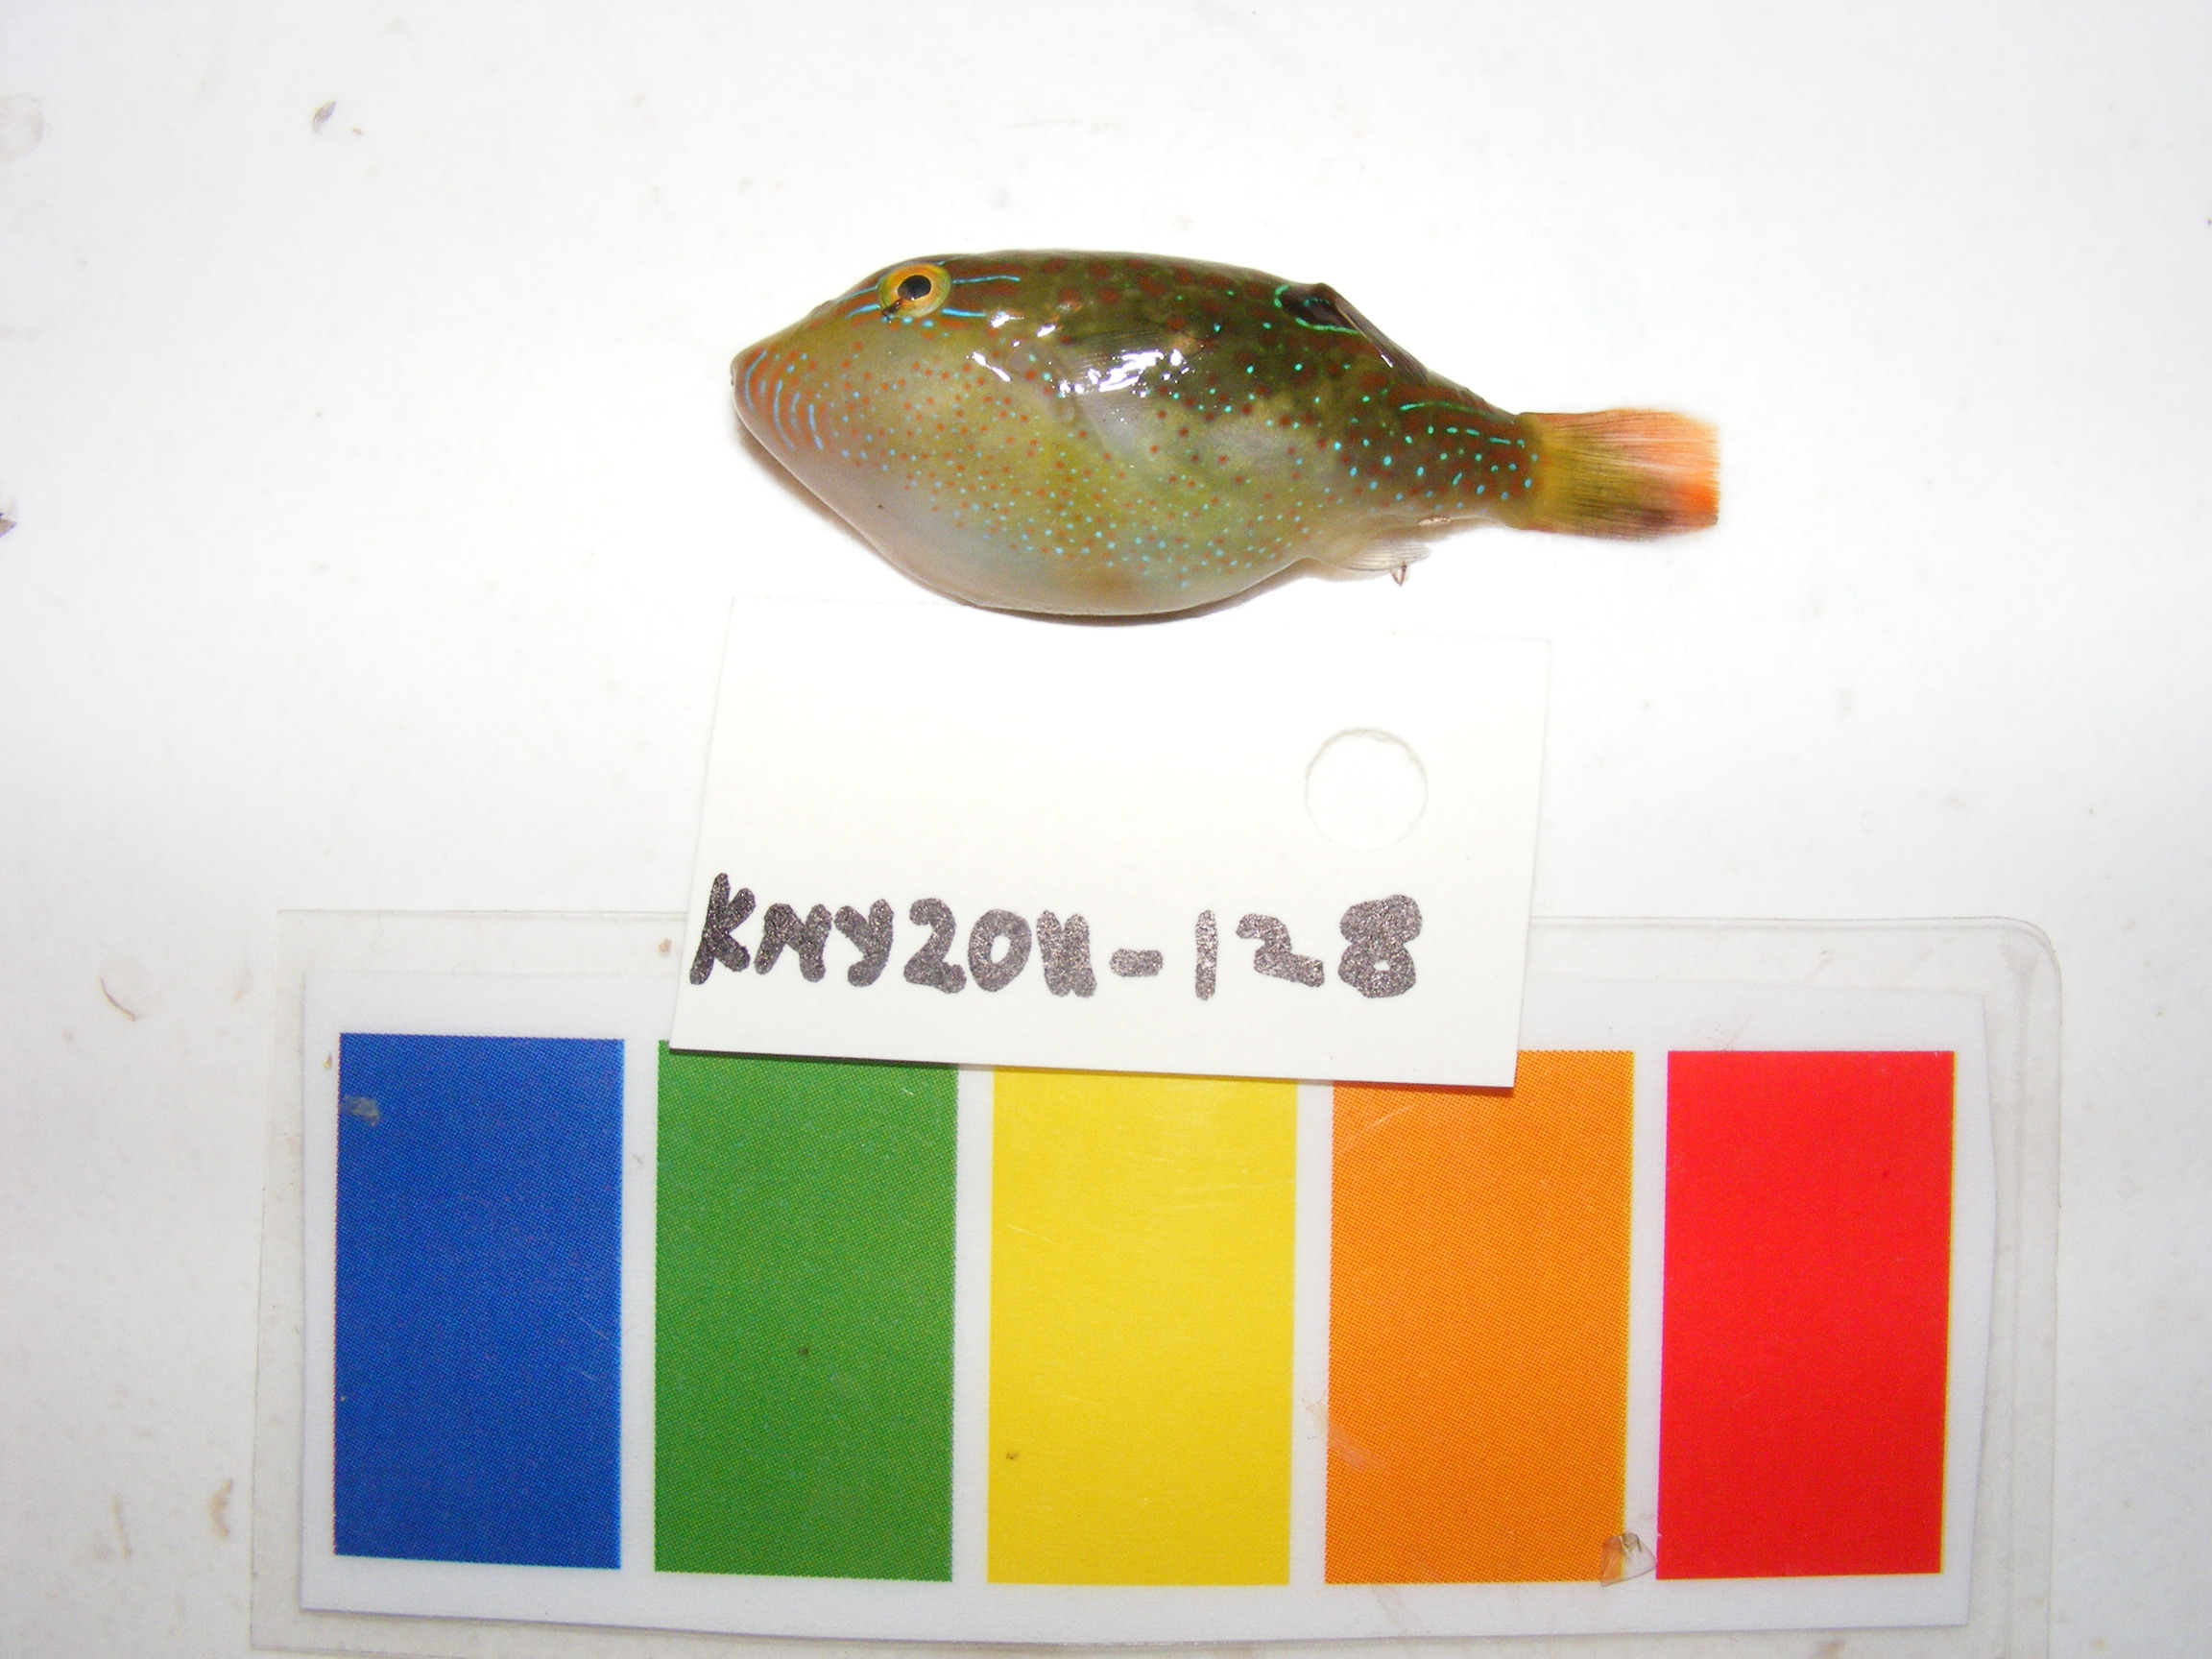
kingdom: Animalia
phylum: Chordata
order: Tetraodontiformes
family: Tetraodontidae
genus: Canthigaster
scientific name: Canthigaster solandri
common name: False-eye toby
